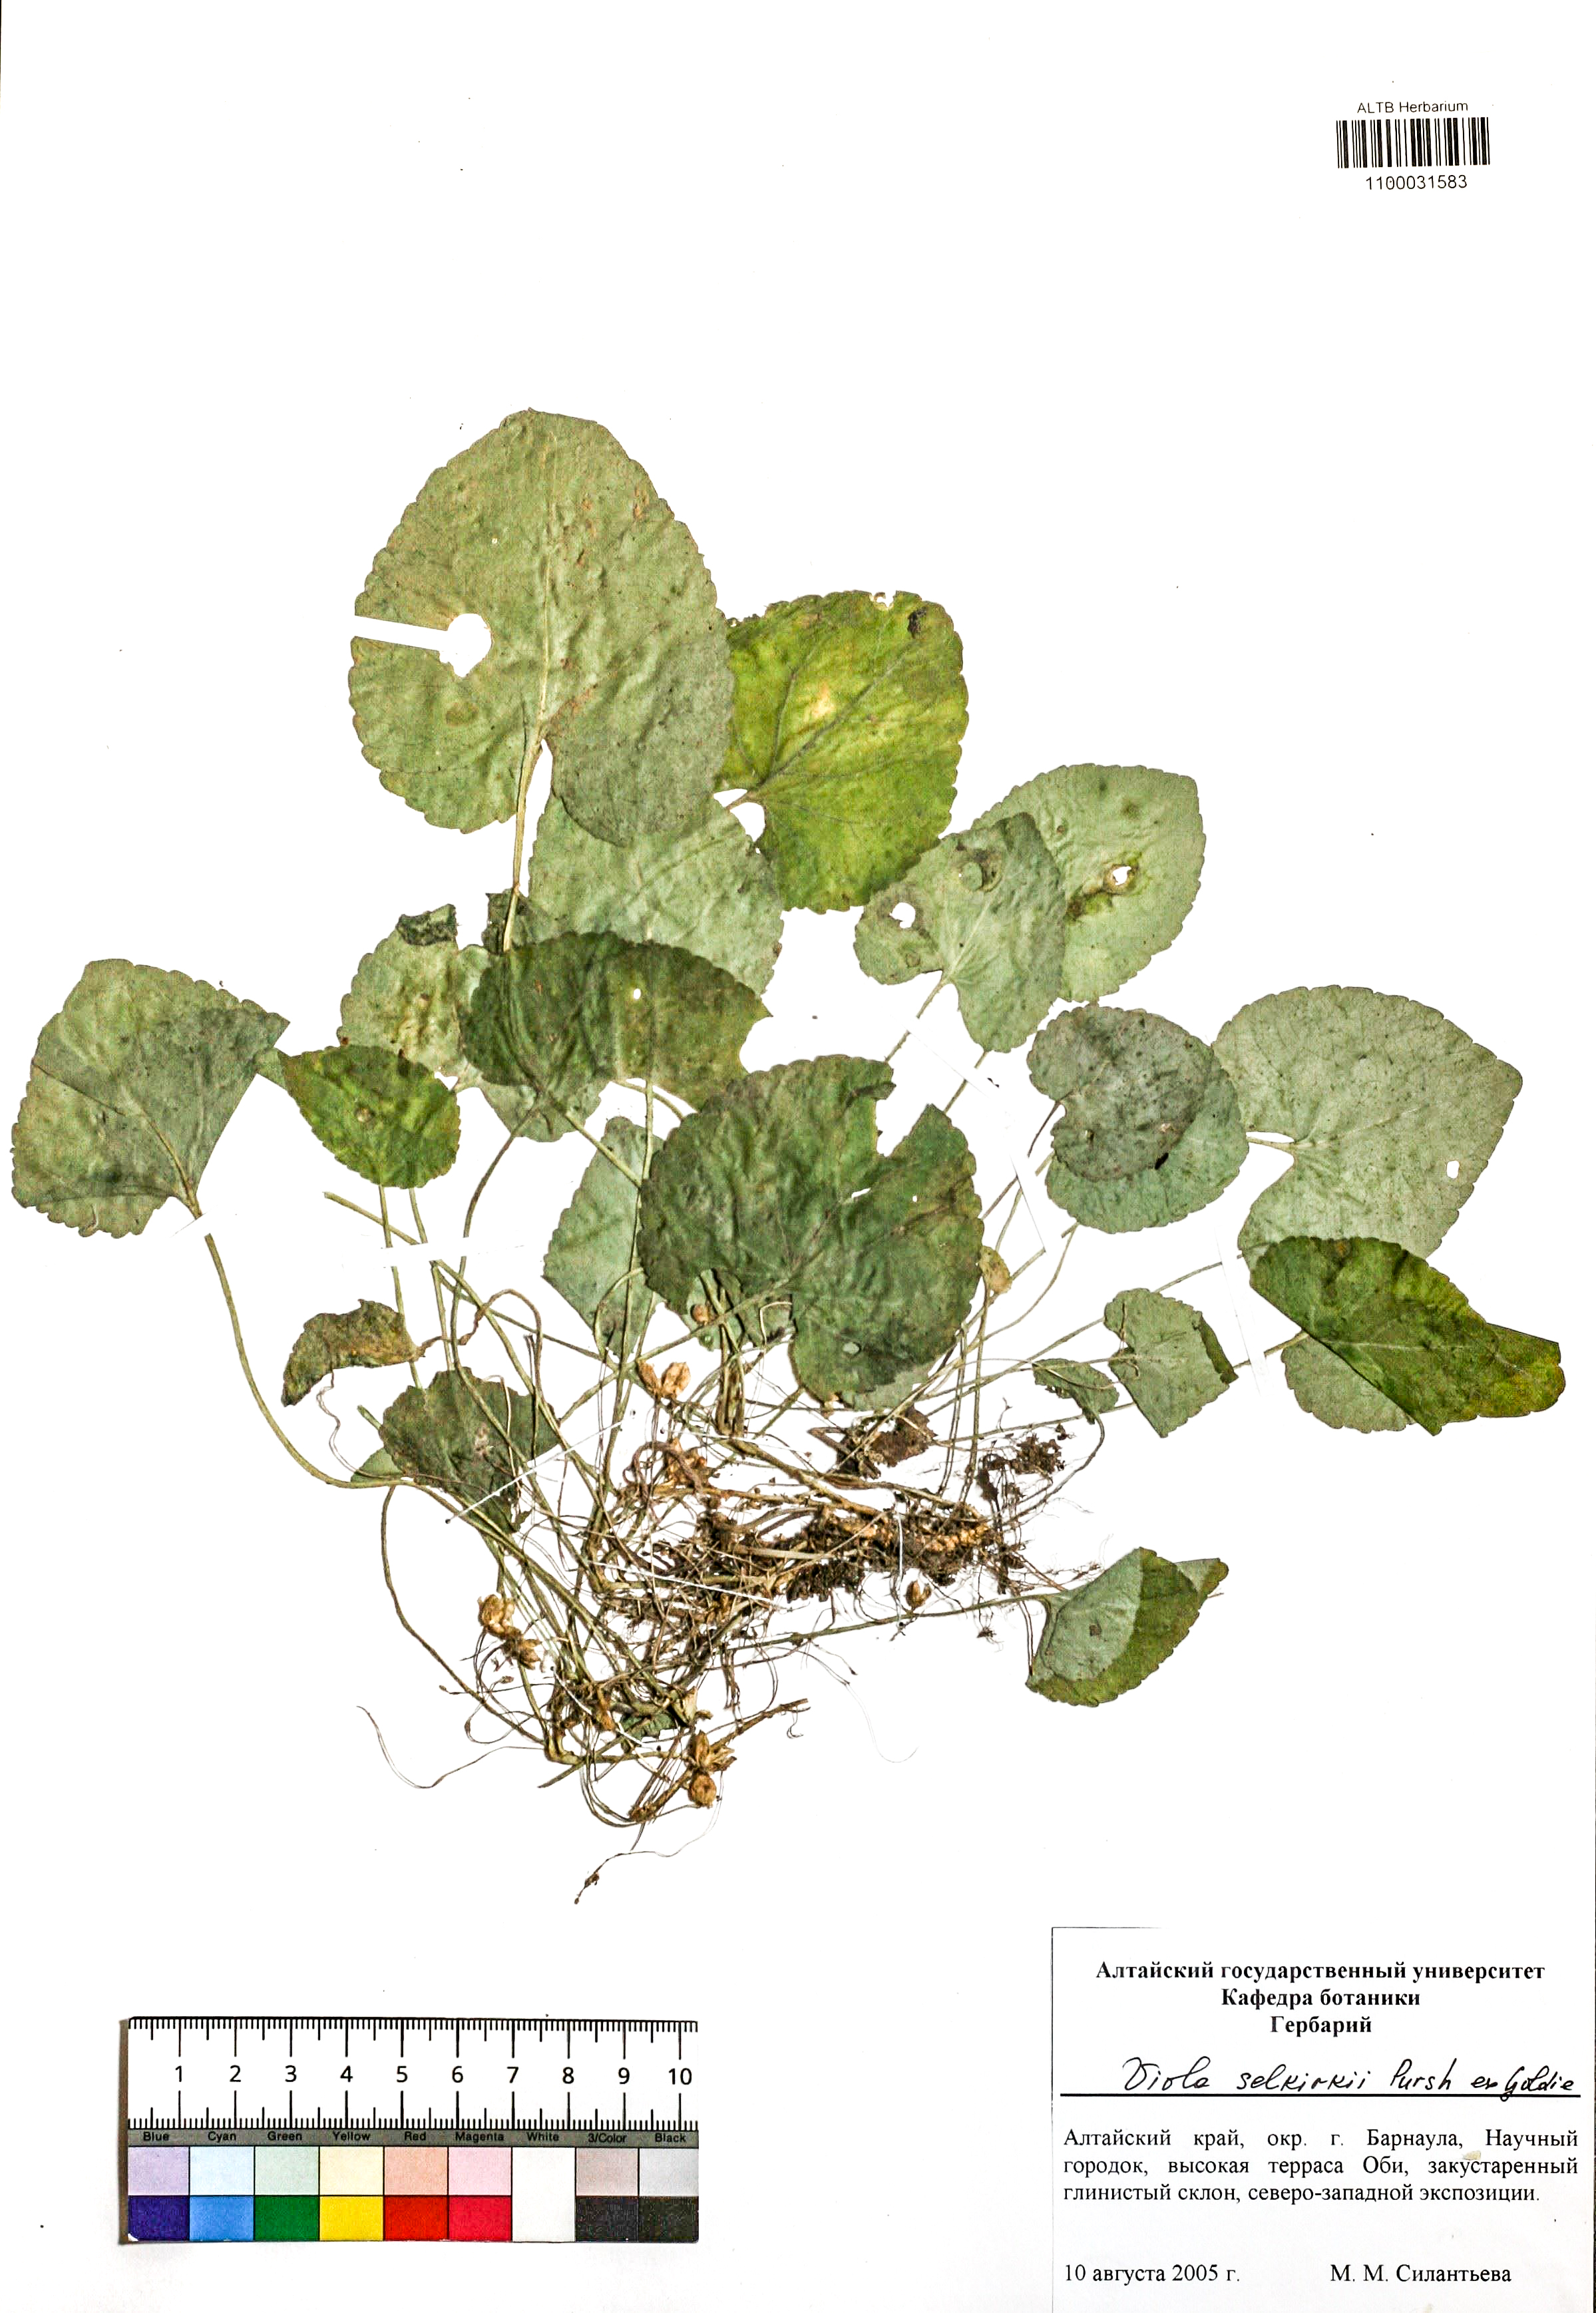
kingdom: Plantae
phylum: Tracheophyta
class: Magnoliopsida
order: Malpighiales
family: Violaceae
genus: Viola
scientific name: Viola selkirkii
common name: Selkirk's violet
